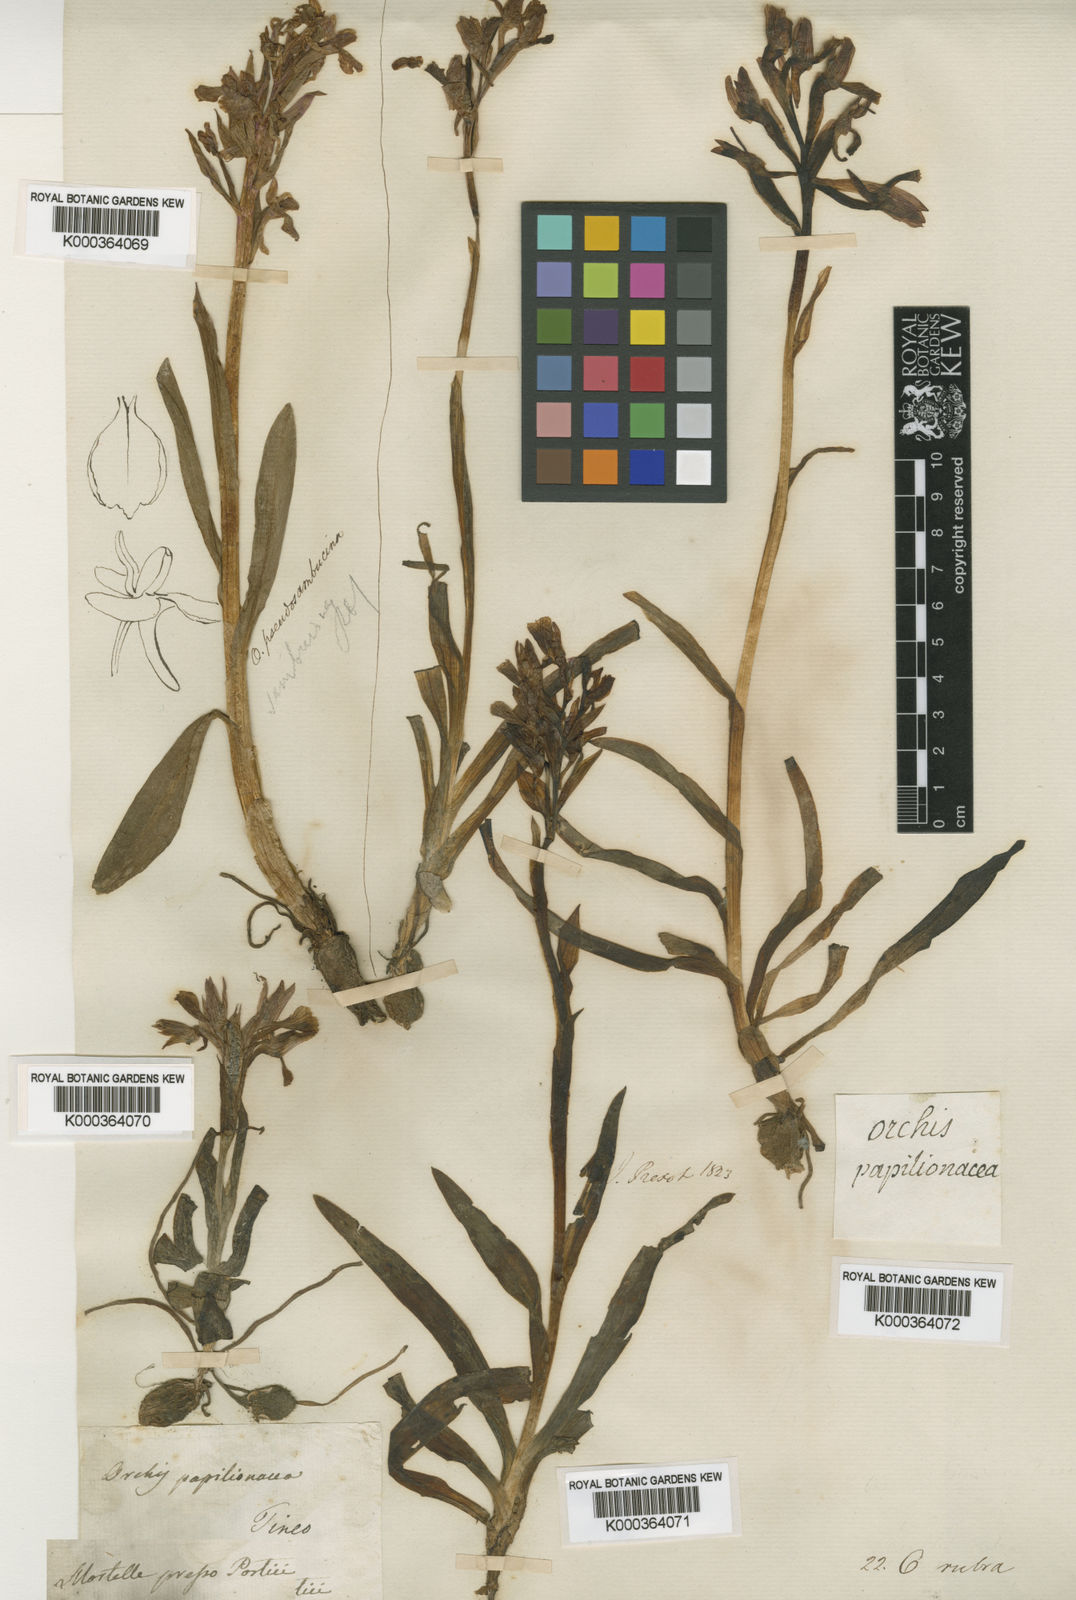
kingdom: Plantae
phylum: Tracheophyta
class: Liliopsida
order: Asparagales
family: Orchidaceae
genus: Anacamptis
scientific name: Anacamptis papilionacea
